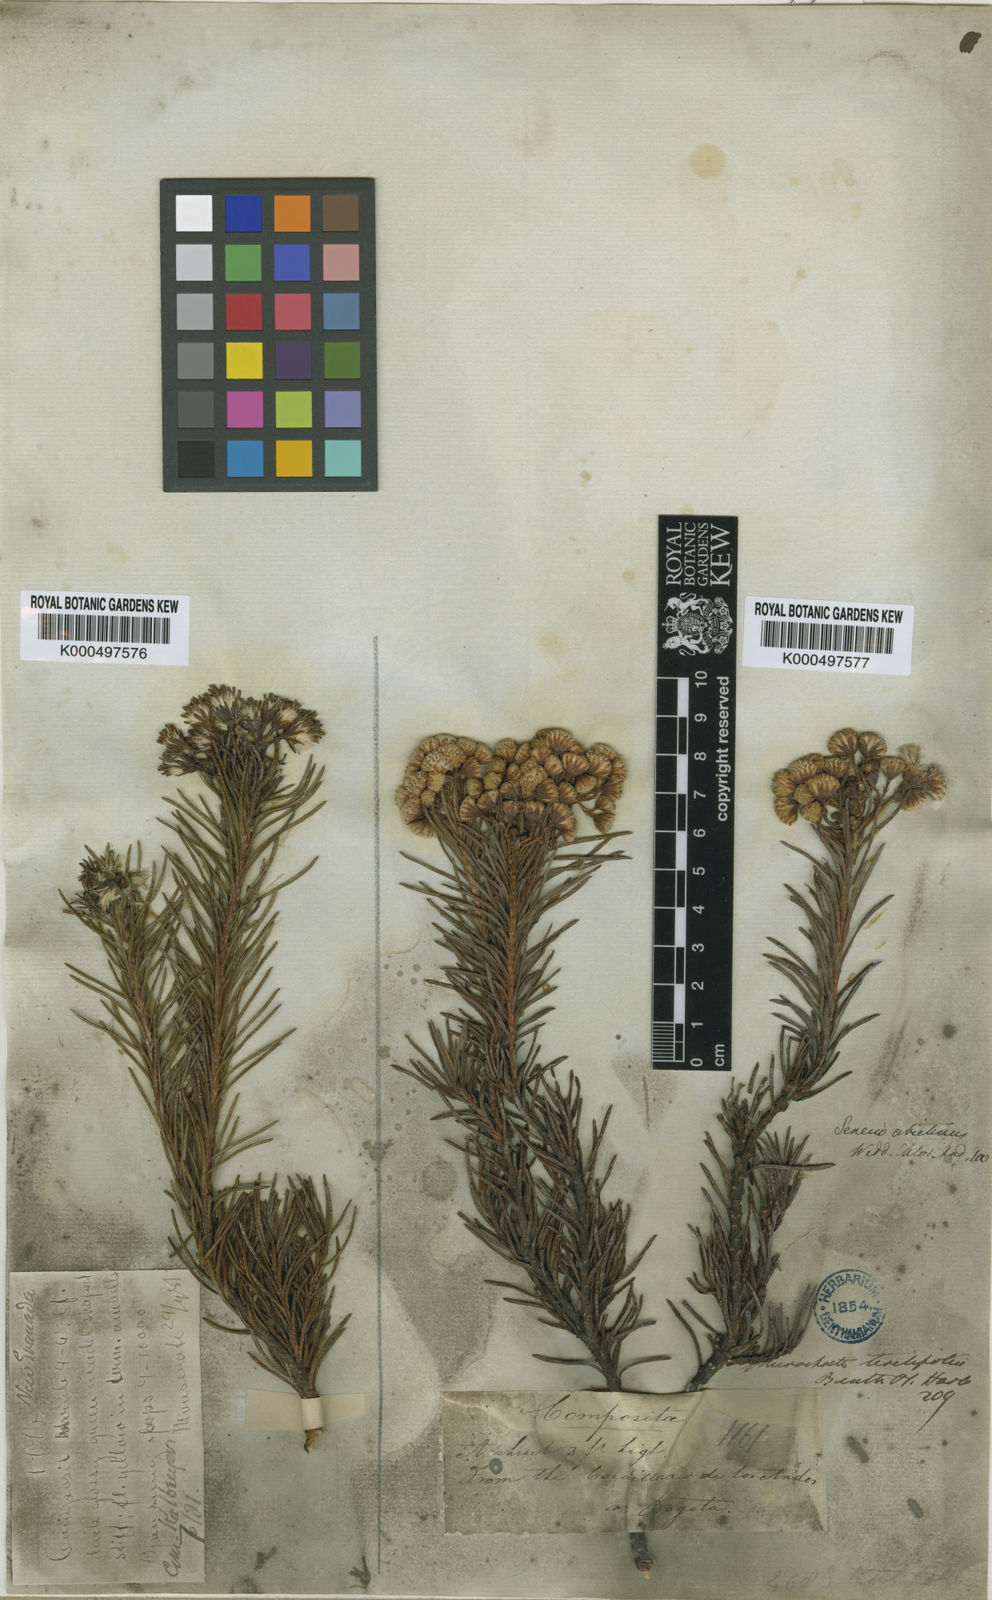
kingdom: Plantae
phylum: Tracheophyta
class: Magnoliopsida
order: Asterales
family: Asteraceae
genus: Monticalia
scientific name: Monticalia abietina
